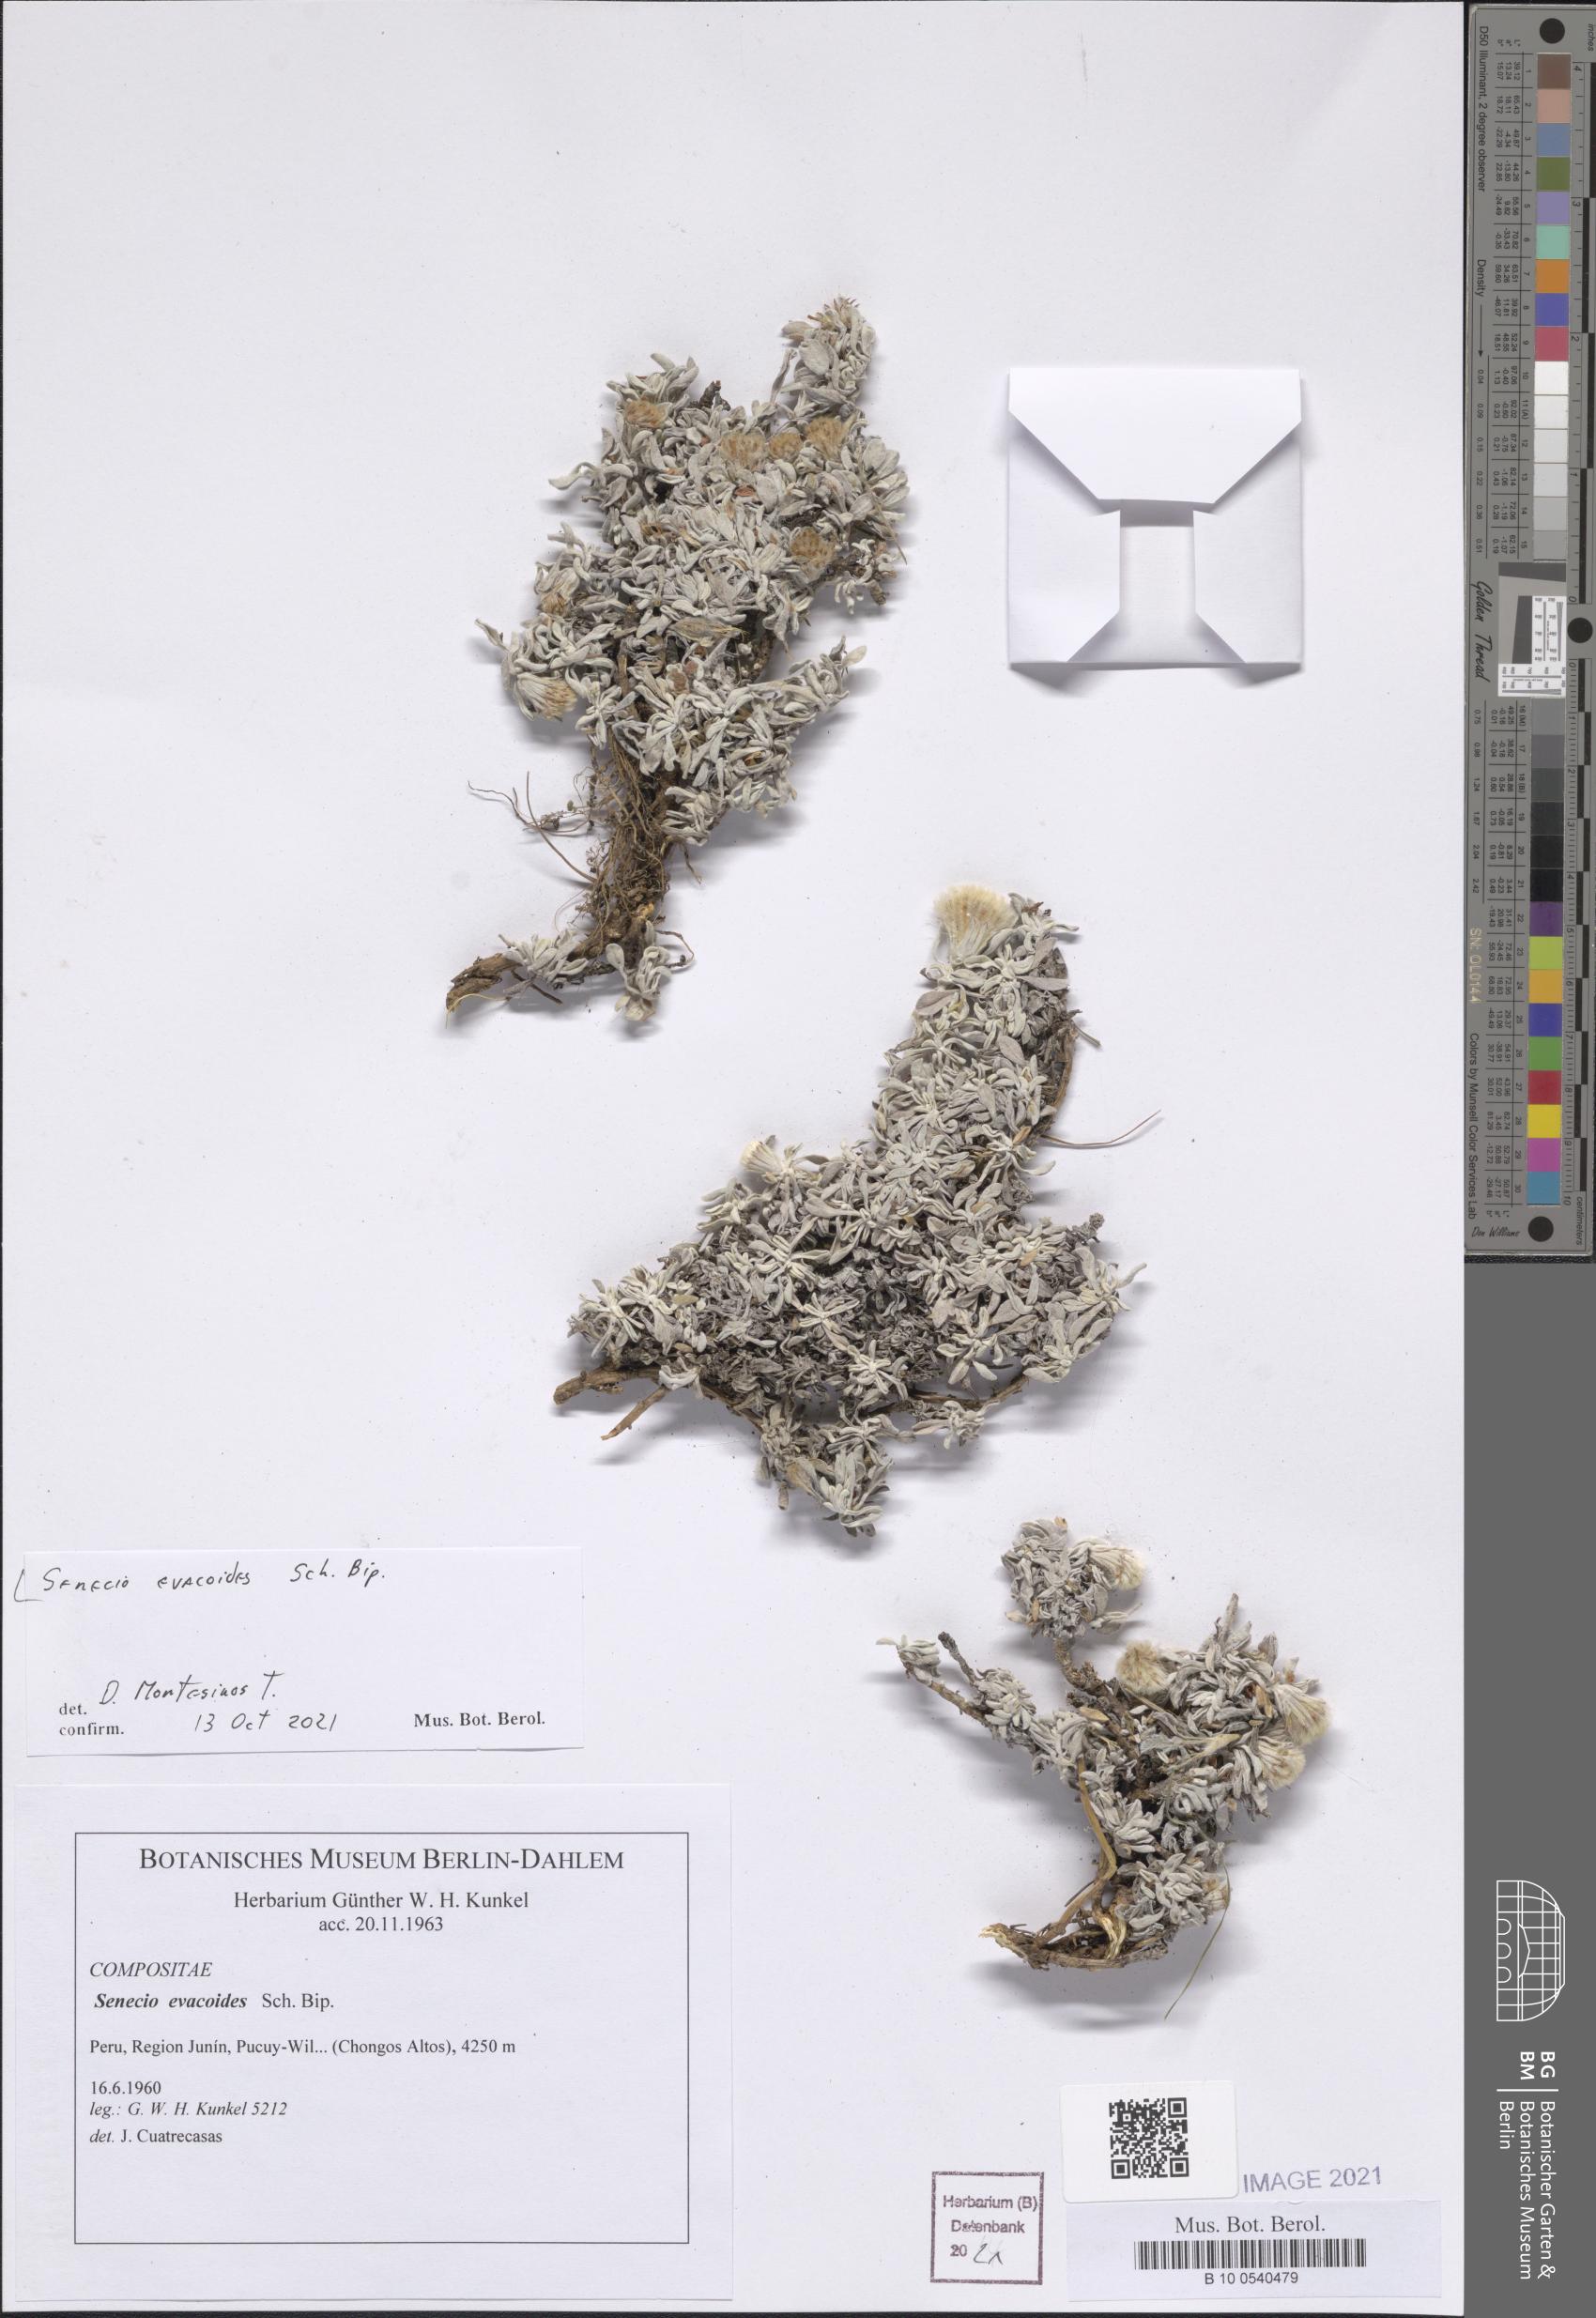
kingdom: Plantae
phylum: Tracheophyta
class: Magnoliopsida
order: Asterales
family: Asteraceae
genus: Senecio
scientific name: Senecio evacoides
